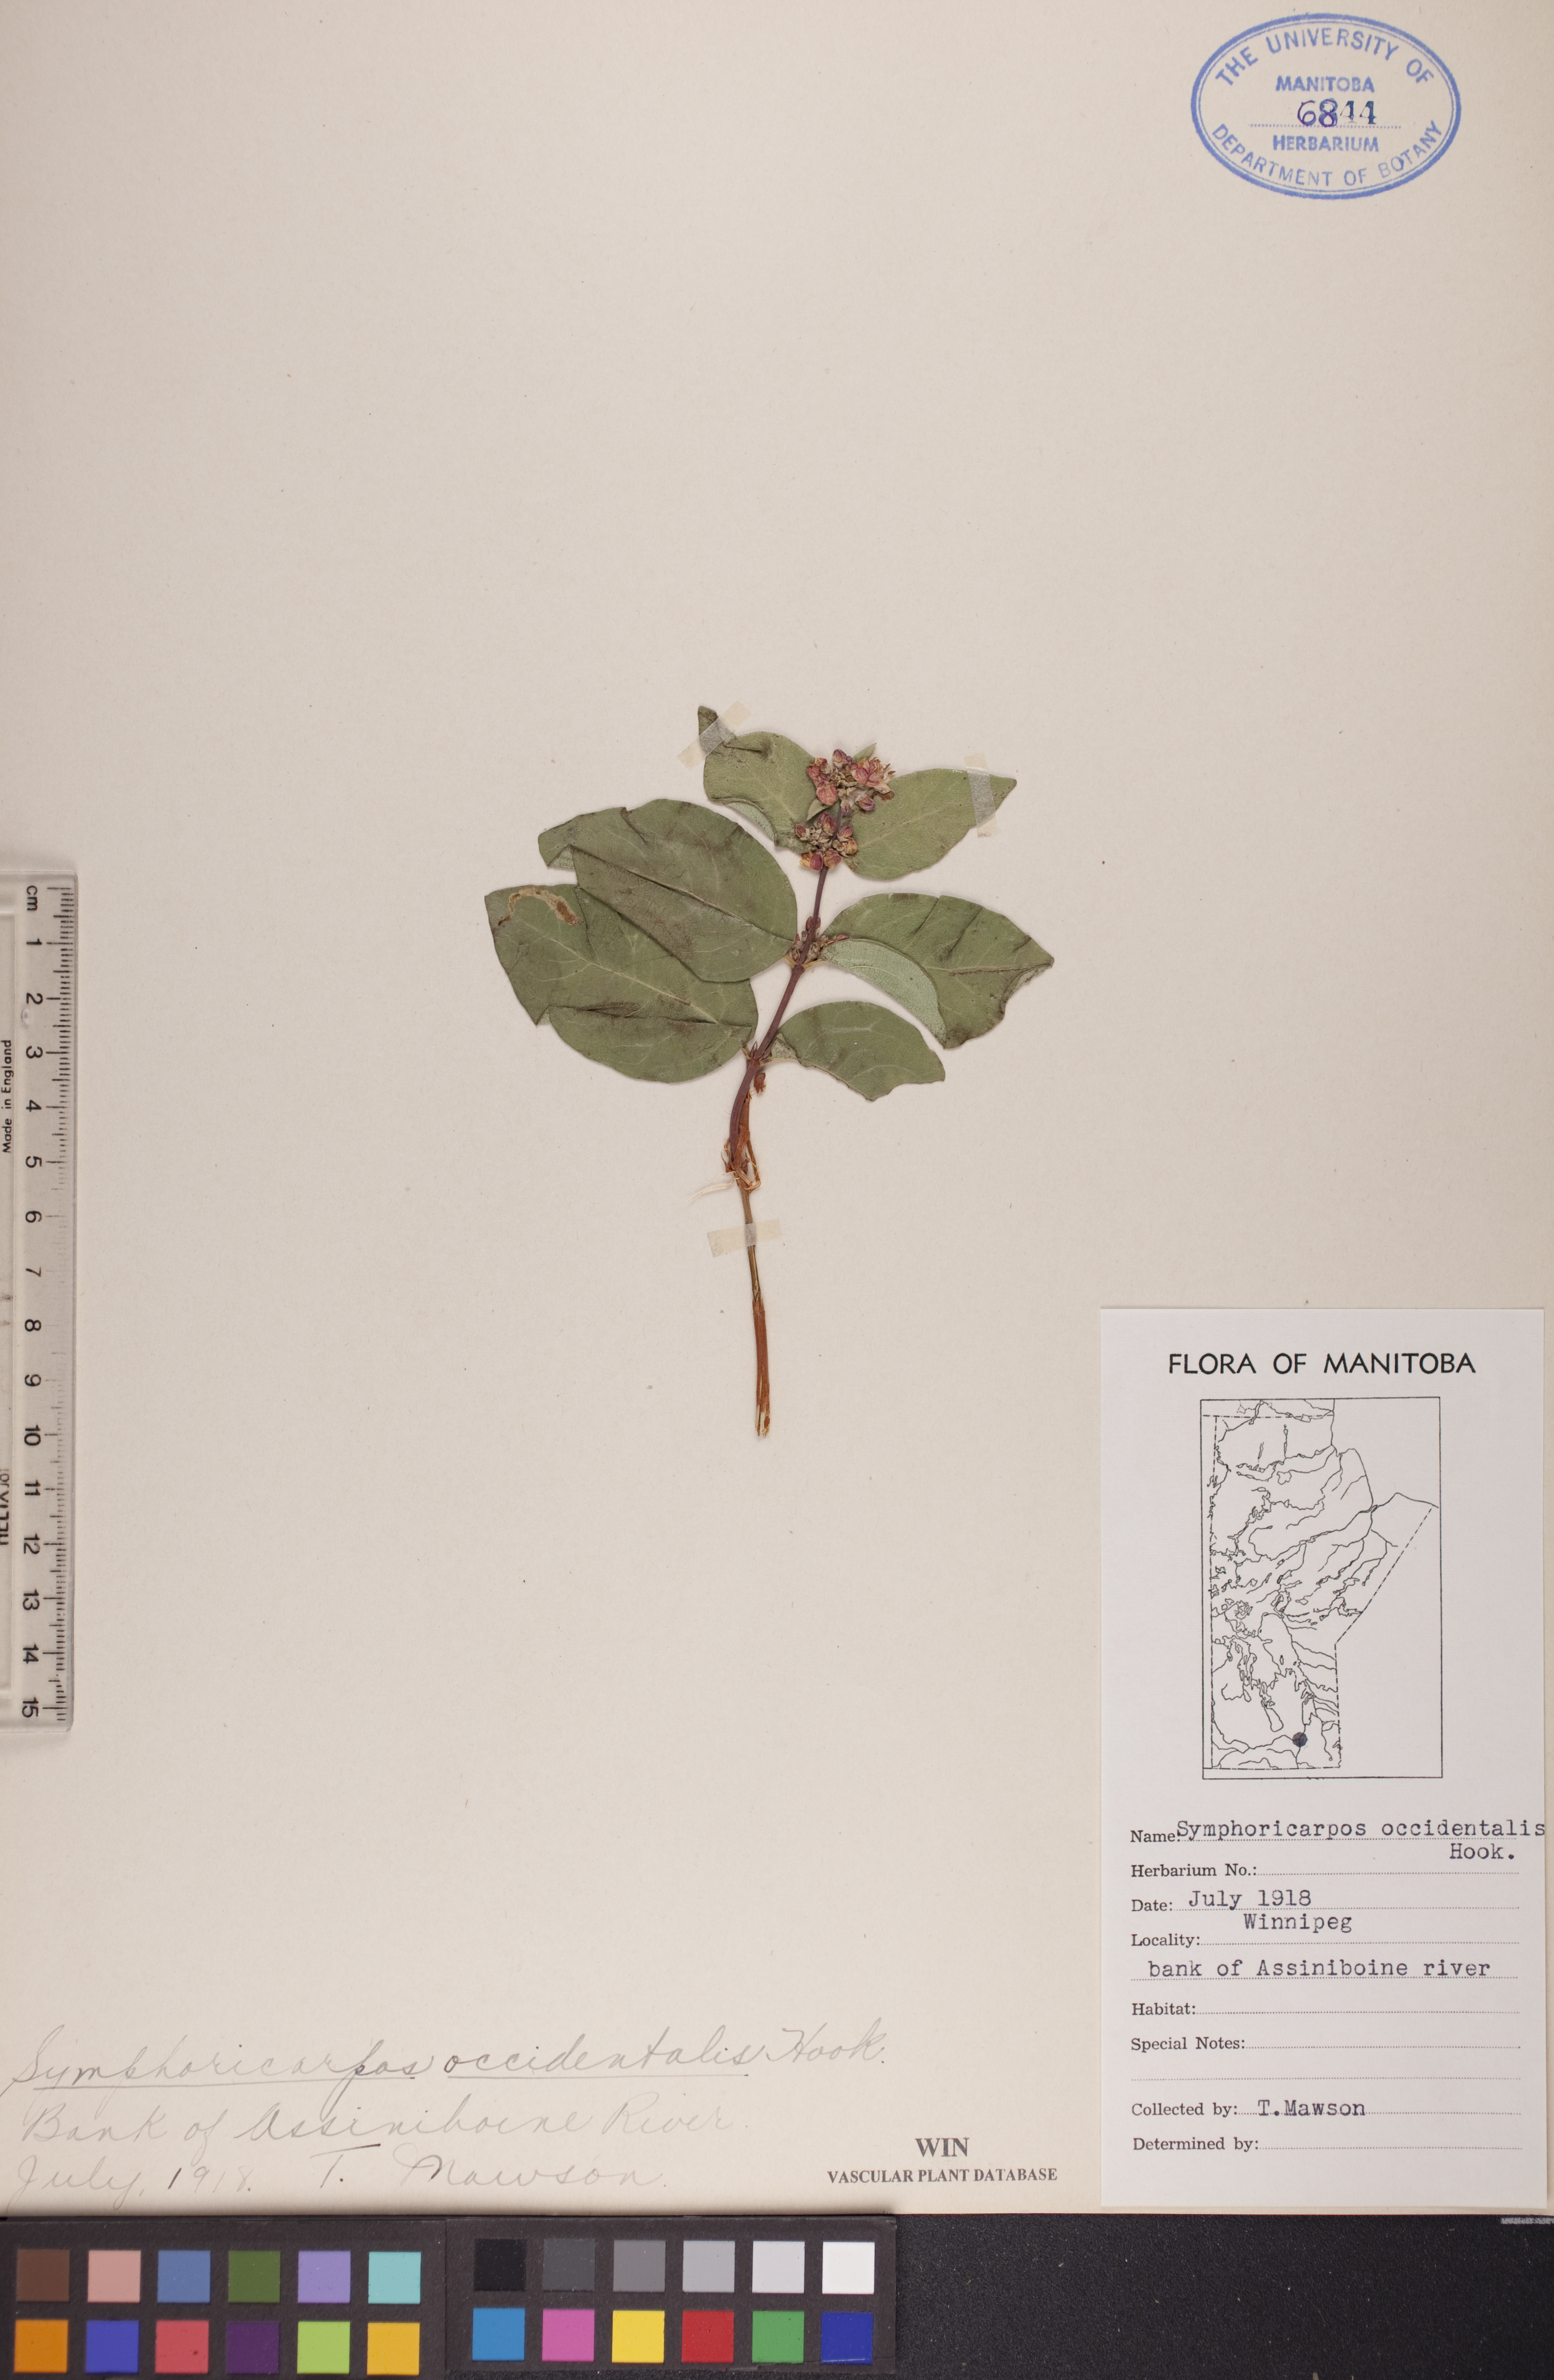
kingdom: Plantae
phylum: Tracheophyta
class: Magnoliopsida
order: Dipsacales
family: Caprifoliaceae
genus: Symphoricarpos
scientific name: Symphoricarpos occidentalis
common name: Wolfberry
